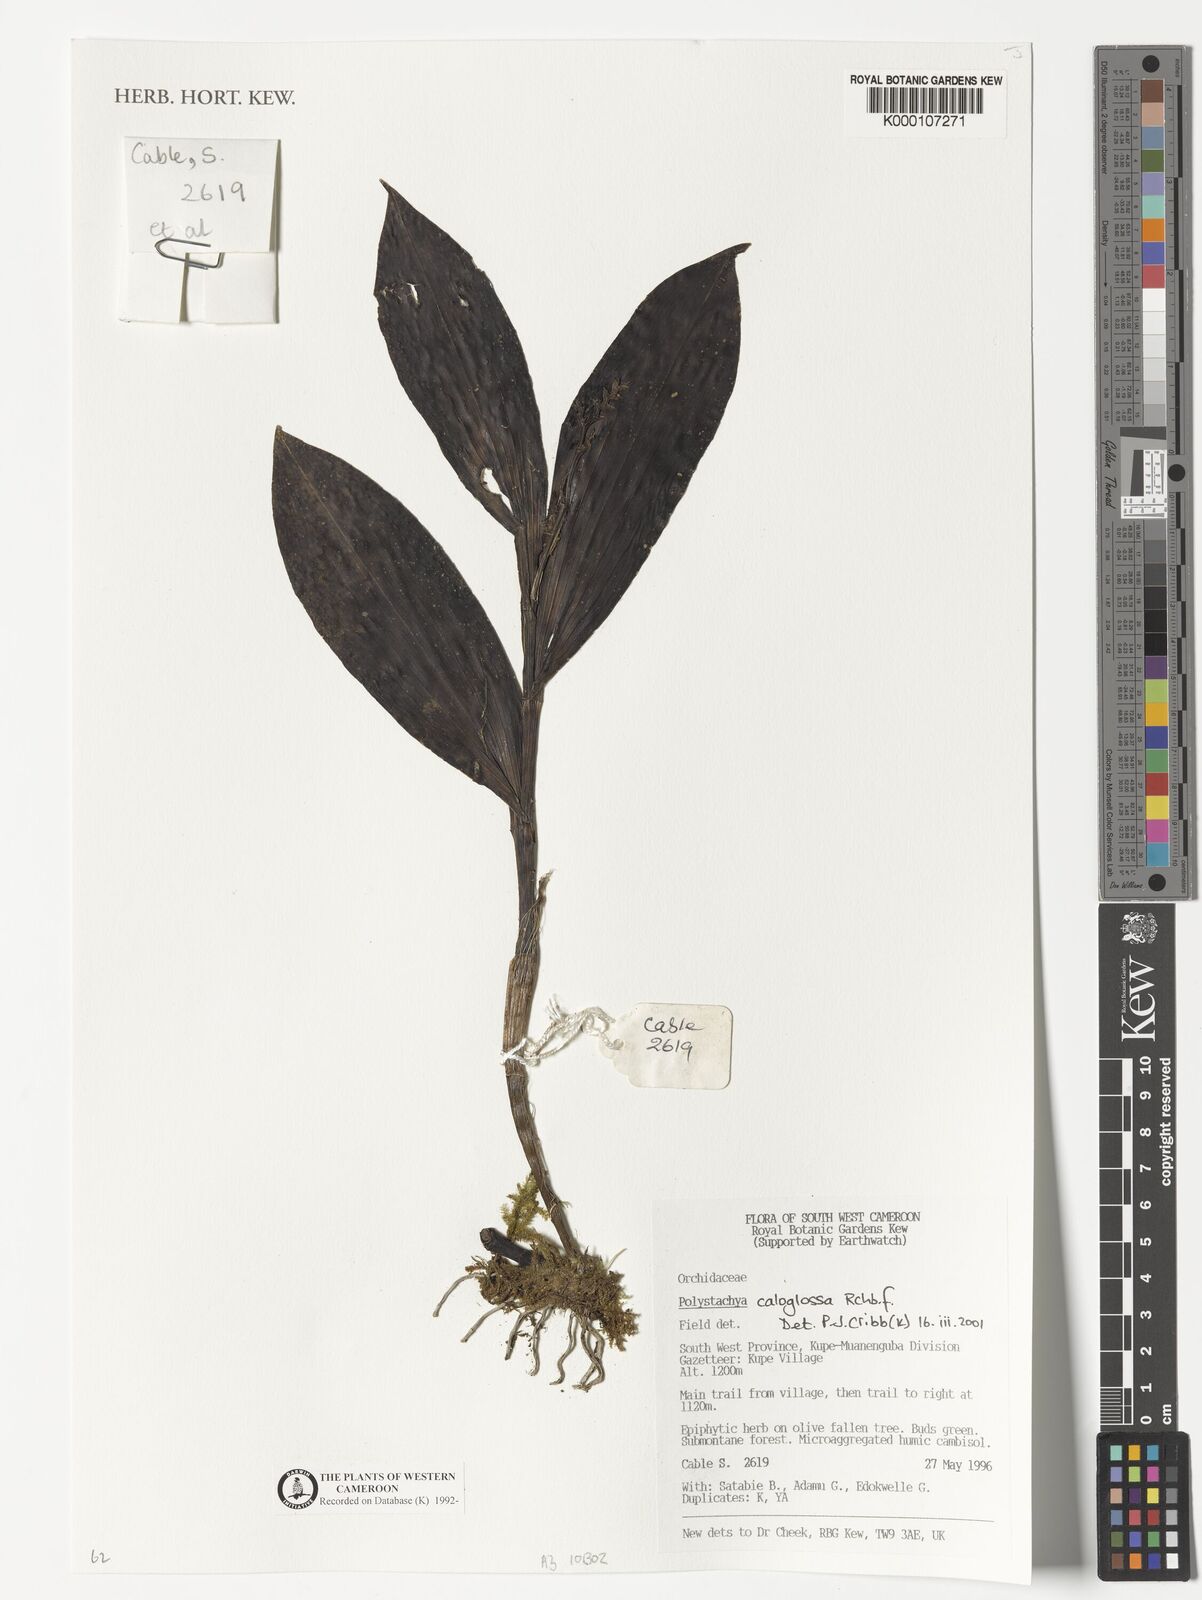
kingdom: Plantae
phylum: Tracheophyta
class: Liliopsida
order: Asparagales
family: Orchidaceae
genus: Polystachya
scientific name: Polystachya caloglossa
